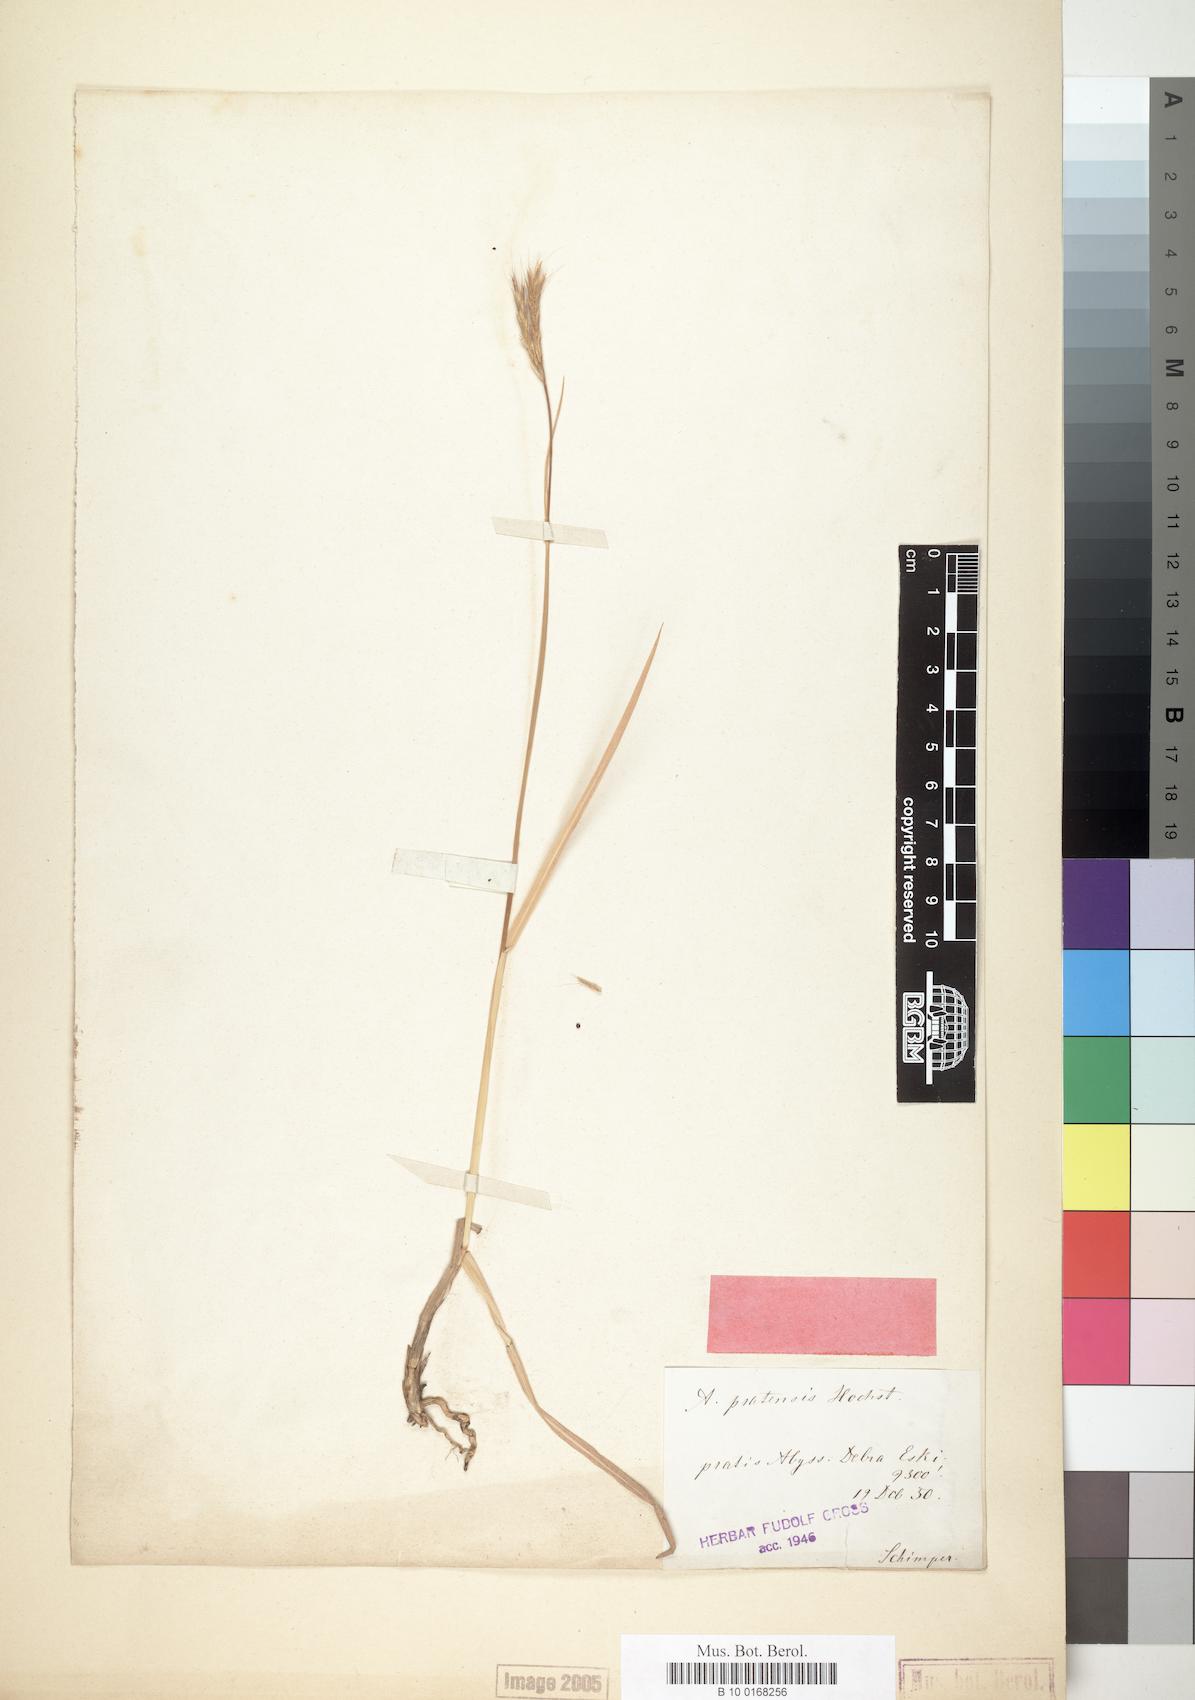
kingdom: Plantae
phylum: Tracheophyta
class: Liliopsida
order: Poales
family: Poaceae
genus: Andropogon
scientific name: Andropogon amethystinus
